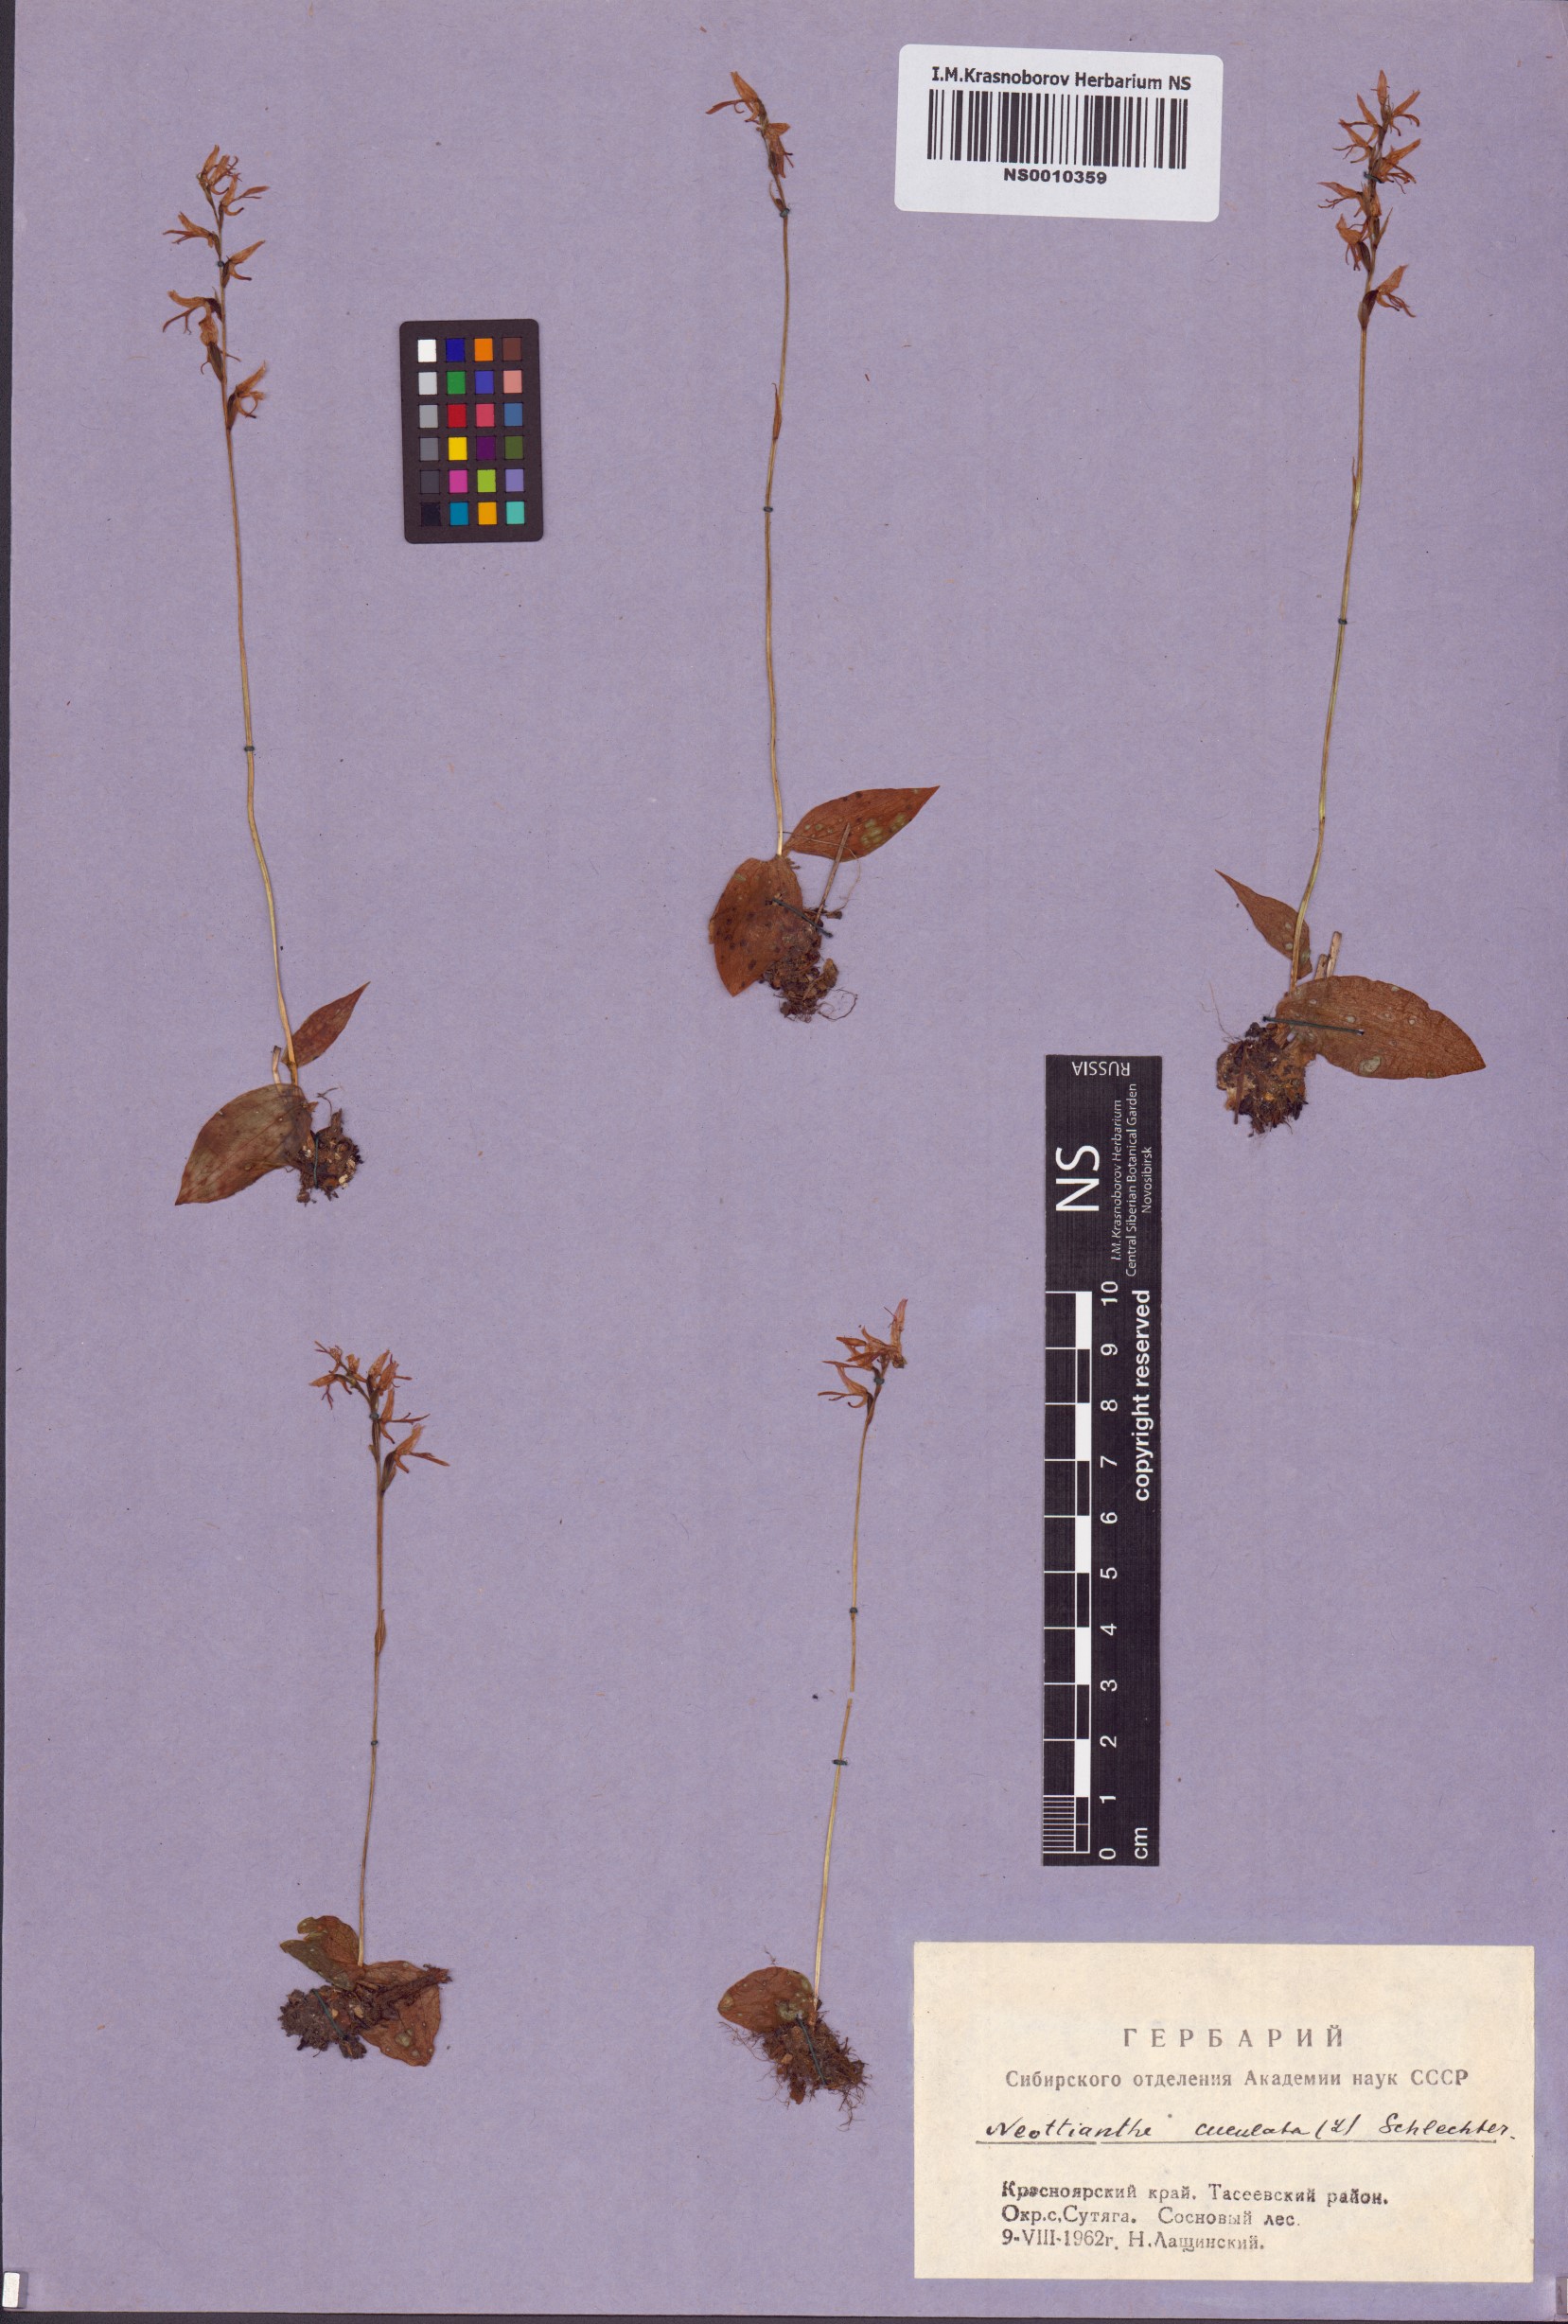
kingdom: Plantae
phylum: Tracheophyta
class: Liliopsida
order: Asparagales
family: Orchidaceae
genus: Hemipilia
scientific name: Hemipilia cucullata
